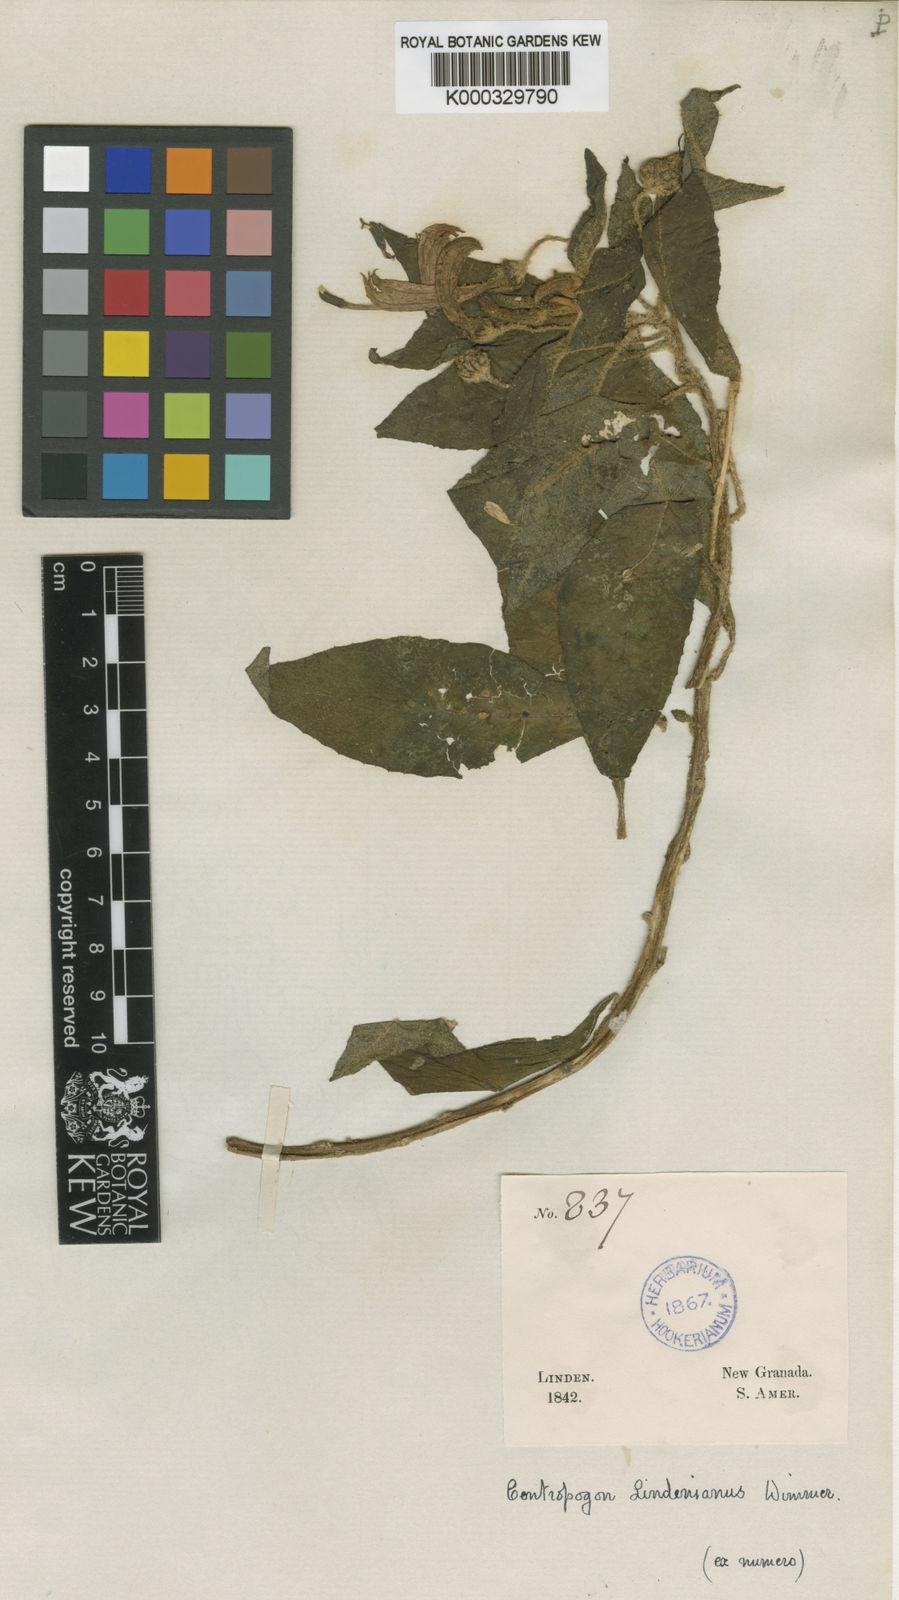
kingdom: Plantae
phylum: Tracheophyta
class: Magnoliopsida
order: Asterales
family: Campanulaceae
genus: Centropogon
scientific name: Centropogon lindenianus
